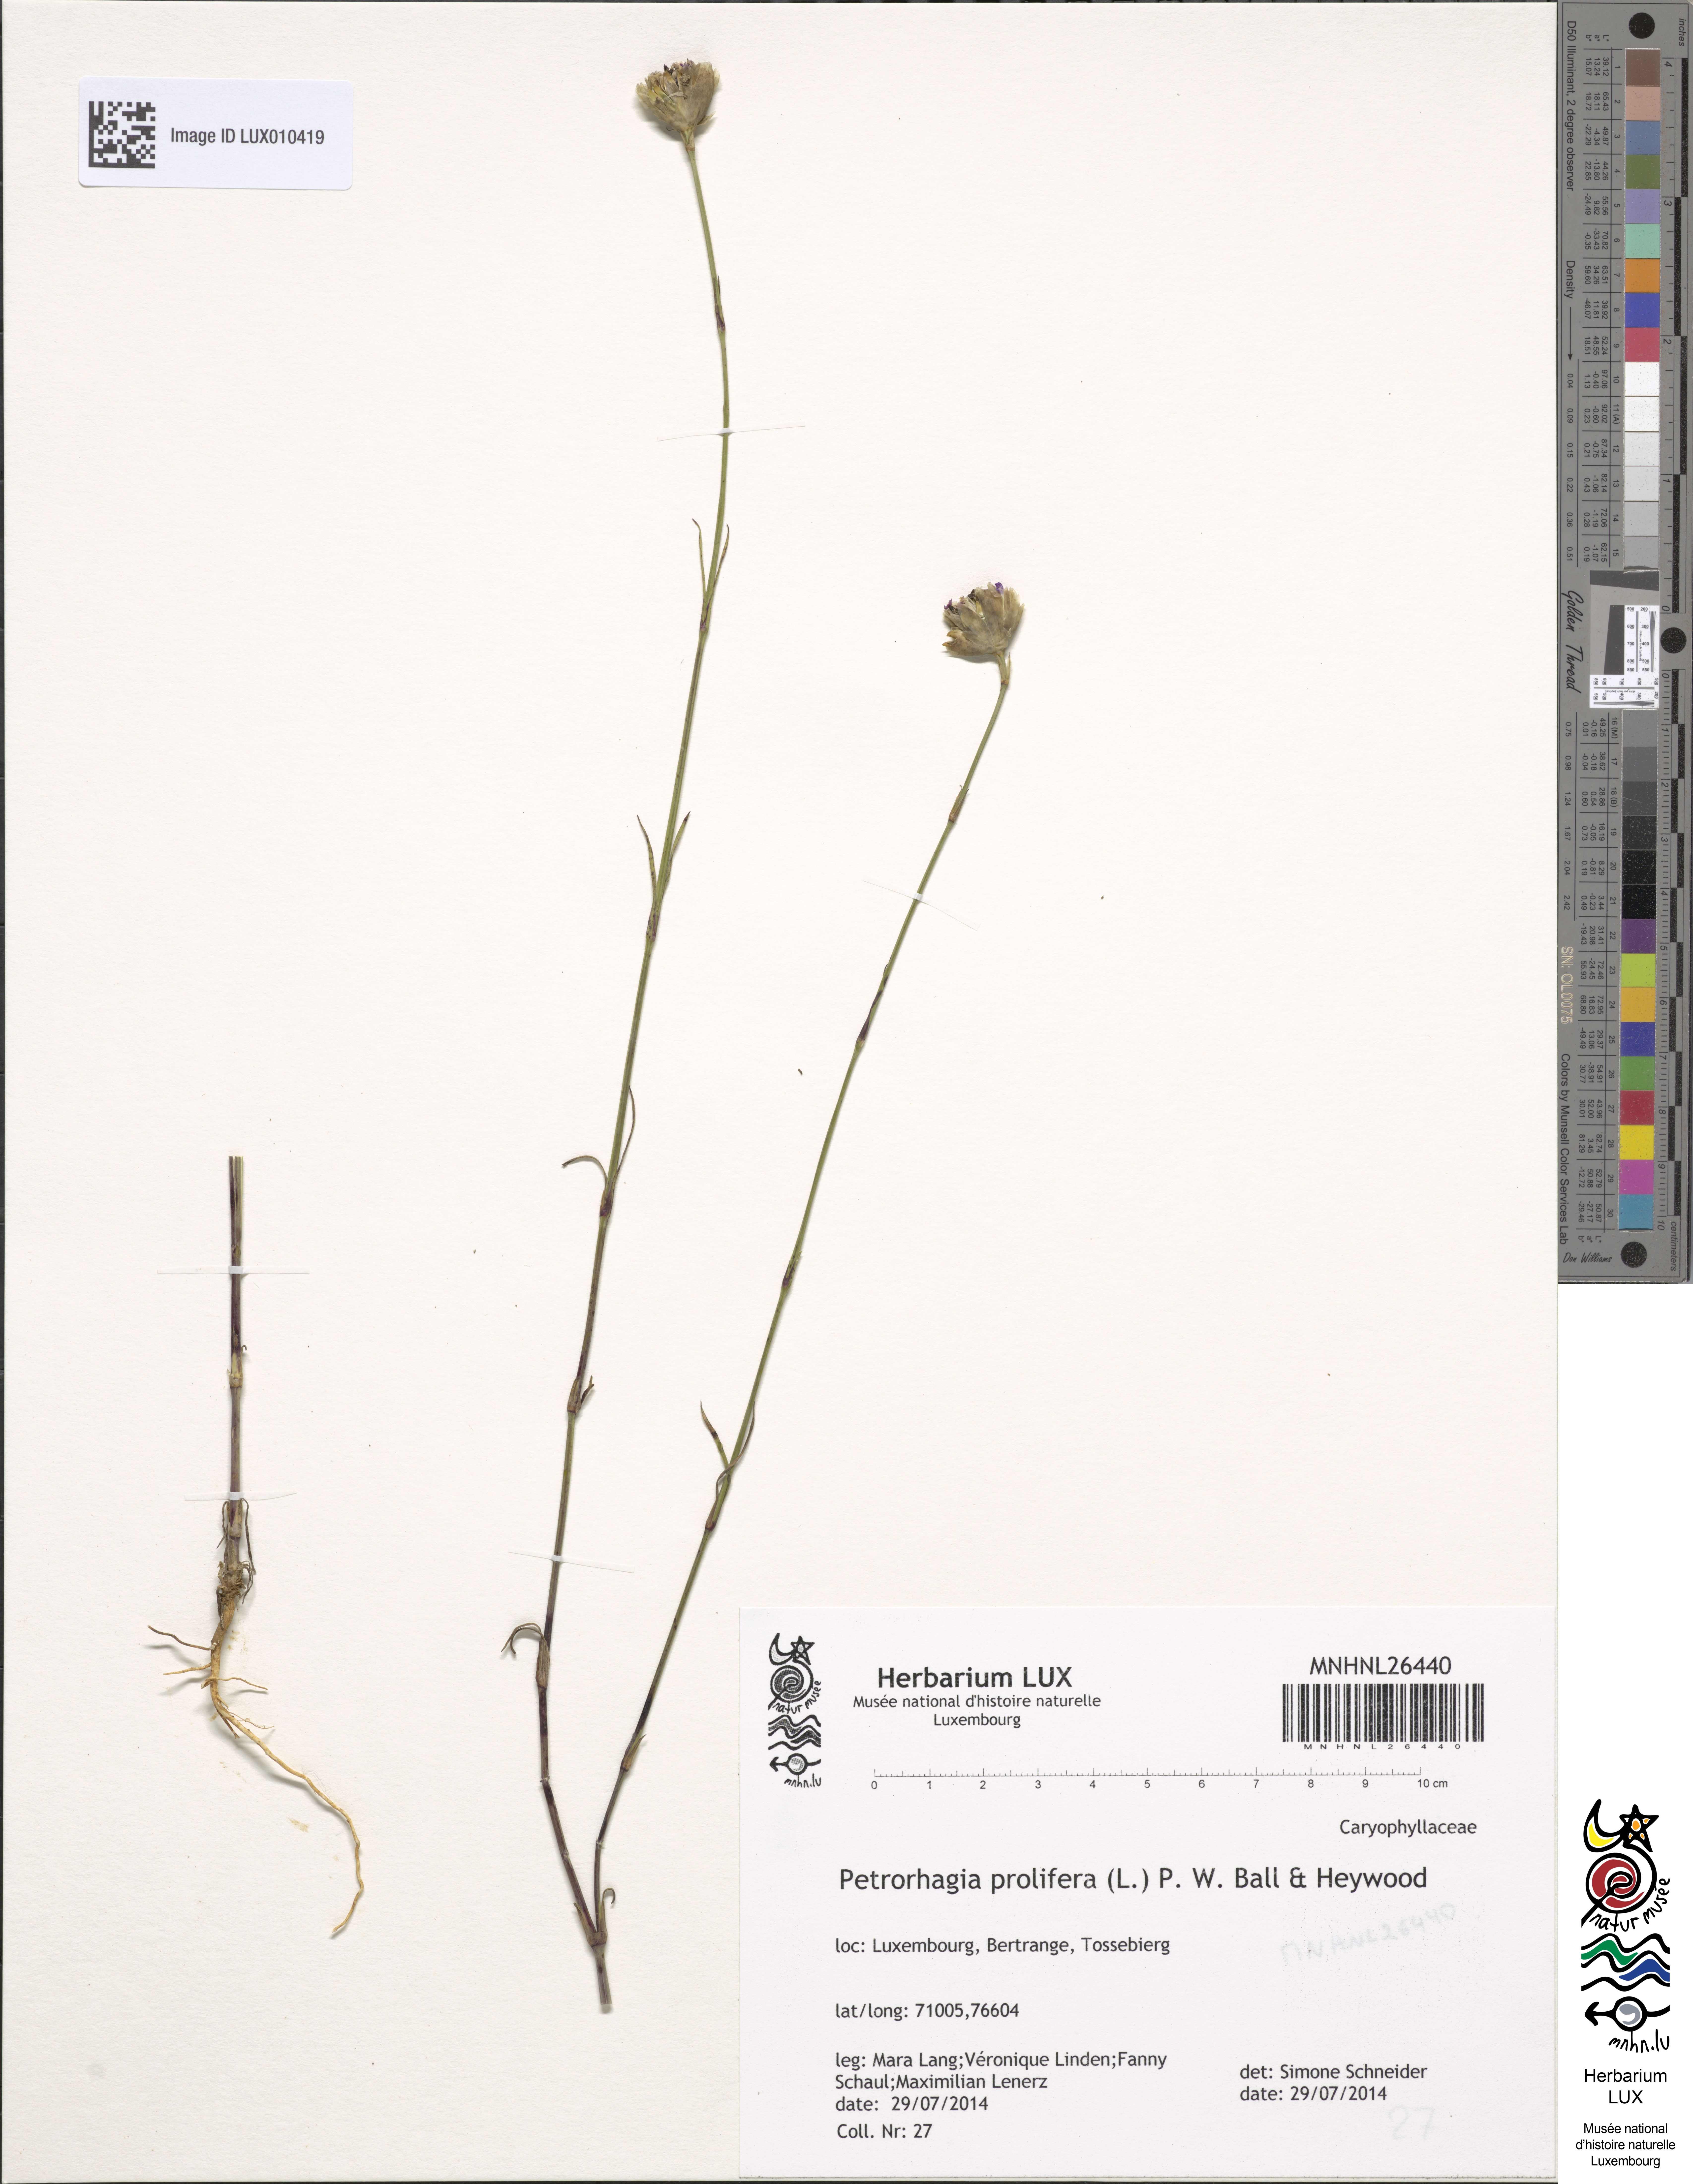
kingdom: Plantae
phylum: Tracheophyta
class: Magnoliopsida
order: Caryophyllales
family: Caryophyllaceae
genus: Petrorhagia
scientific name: Petrorhagia prolifera
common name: Proliferous pink
